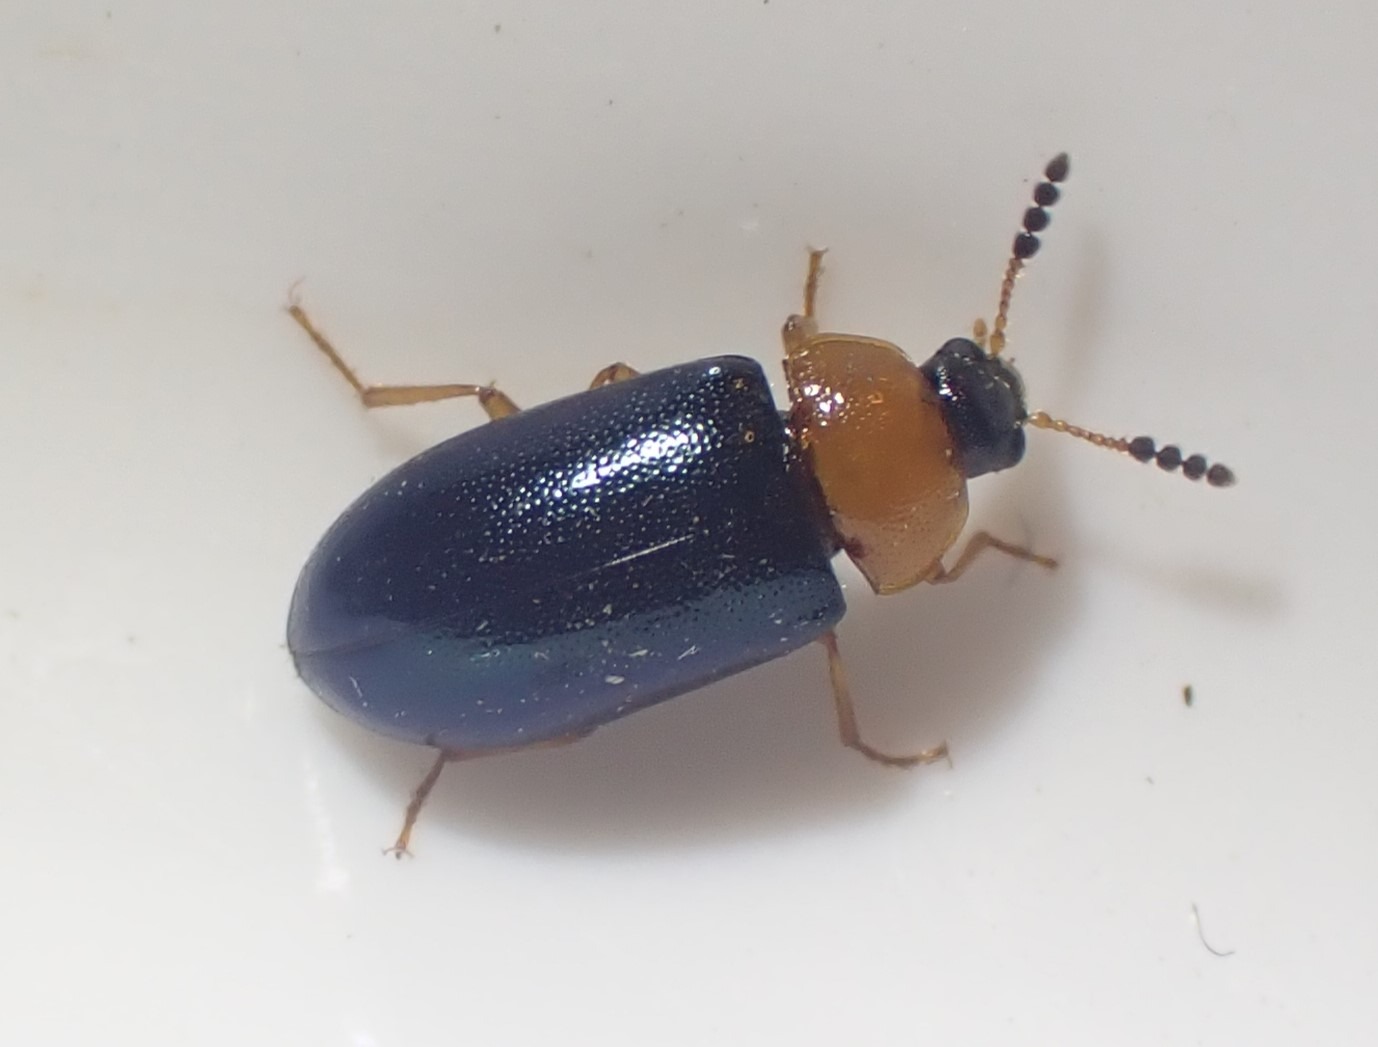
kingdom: Animalia
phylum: Arthropoda
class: Insecta
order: Coleoptera
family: Tetratomidae
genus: Tetratoma
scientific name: Tetratoma fungorum
